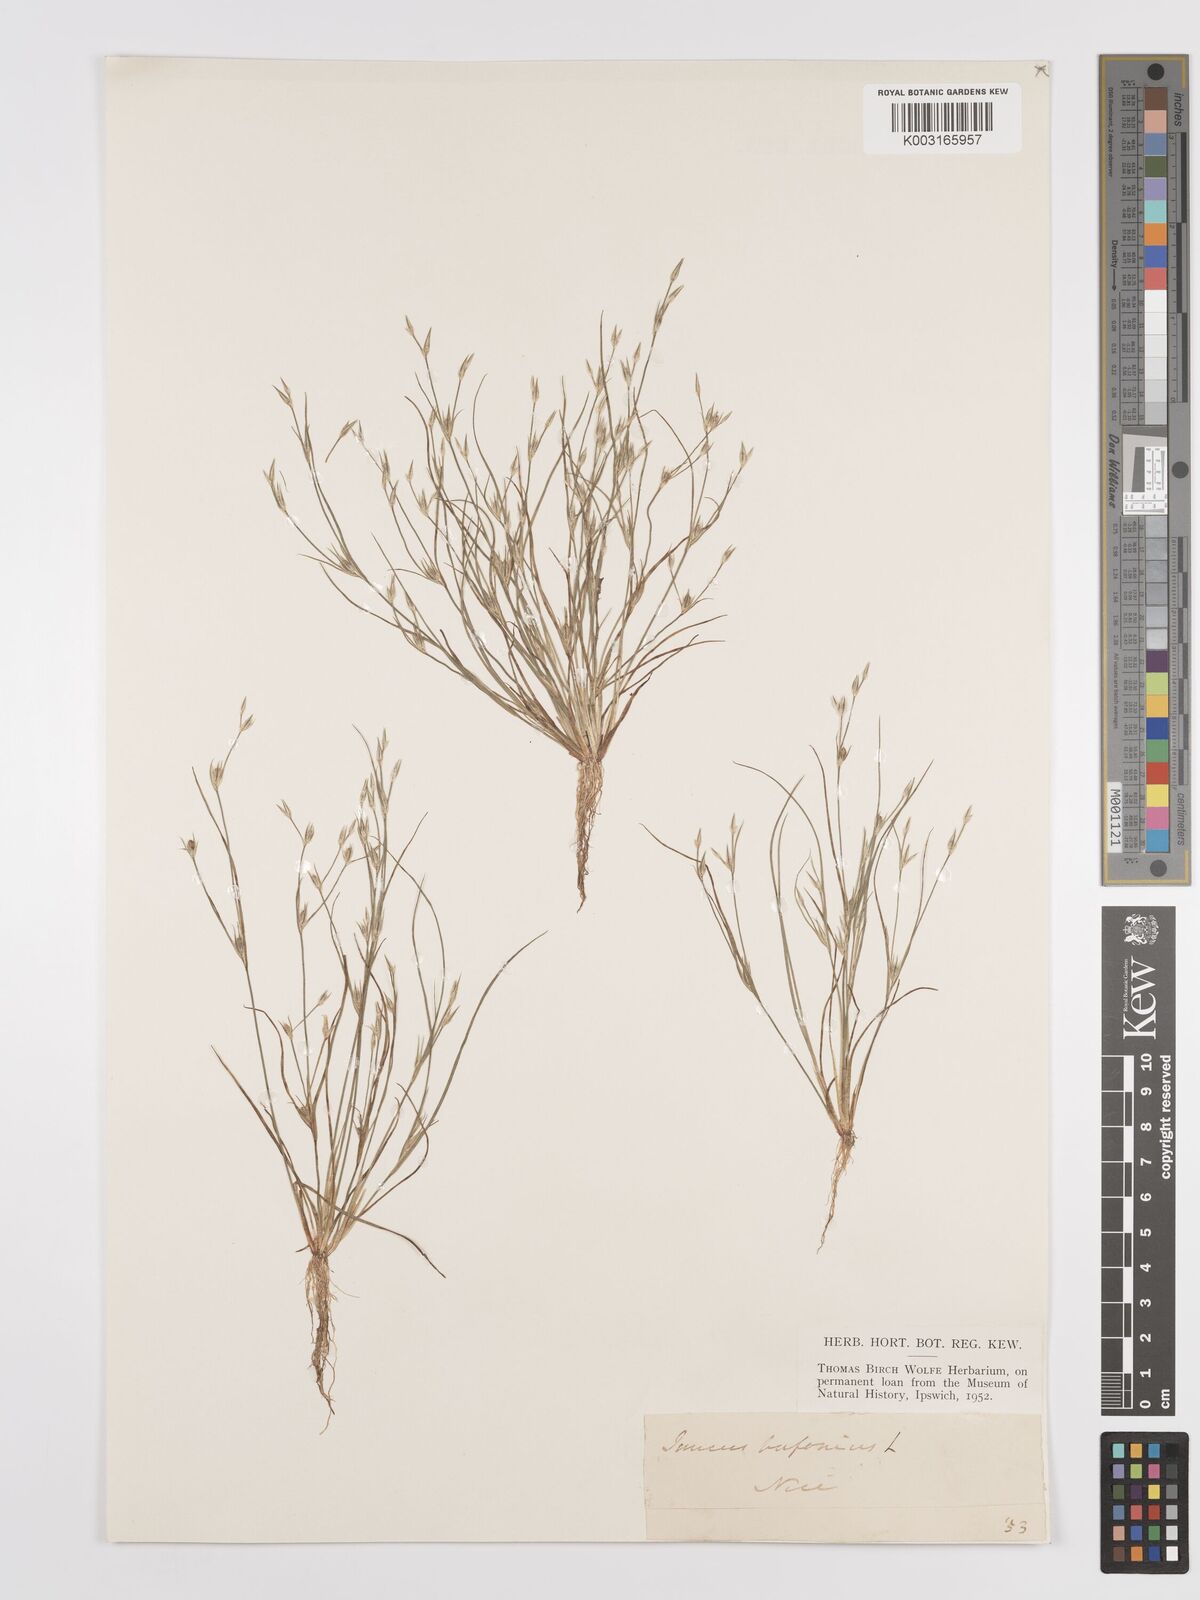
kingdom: Plantae
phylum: Tracheophyta
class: Liliopsida
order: Poales
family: Juncaceae
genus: Juncus
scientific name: Juncus bufonius
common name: Toad rush
